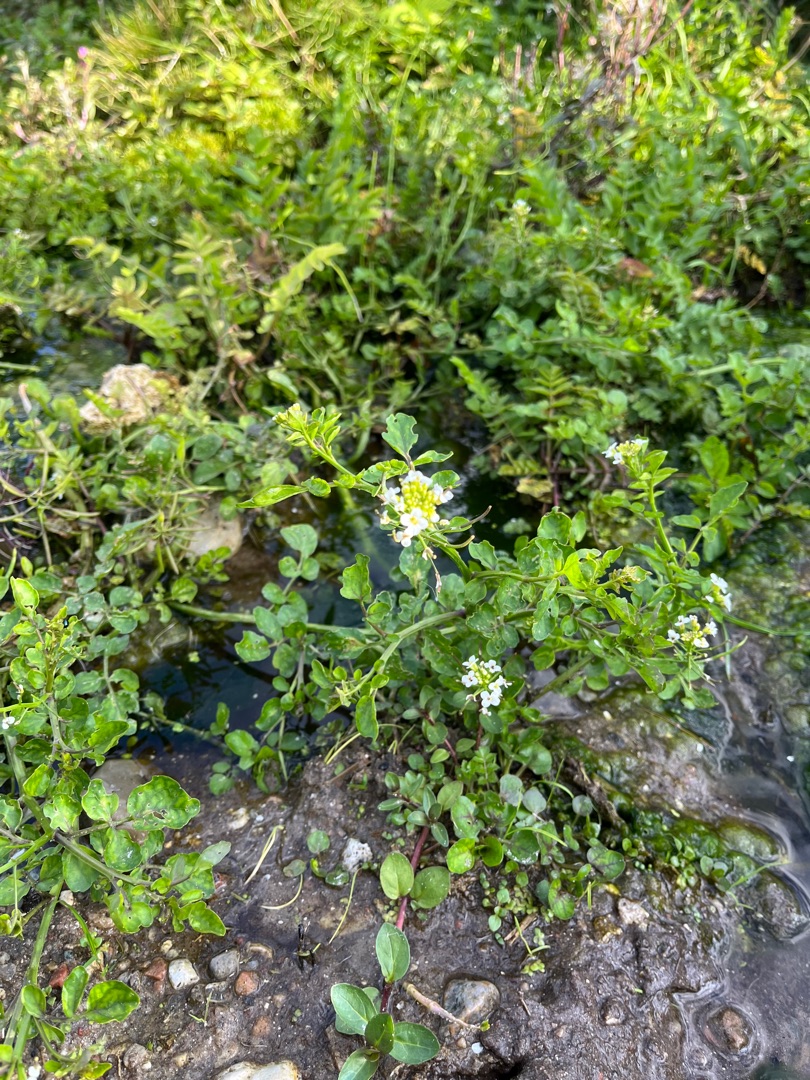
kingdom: Plantae
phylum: Tracheophyta
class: Magnoliopsida
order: Brassicales
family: Brassicaceae
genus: Nasturtium
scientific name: Nasturtium microphyllum
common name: Tyndskulpet brøndkarse
